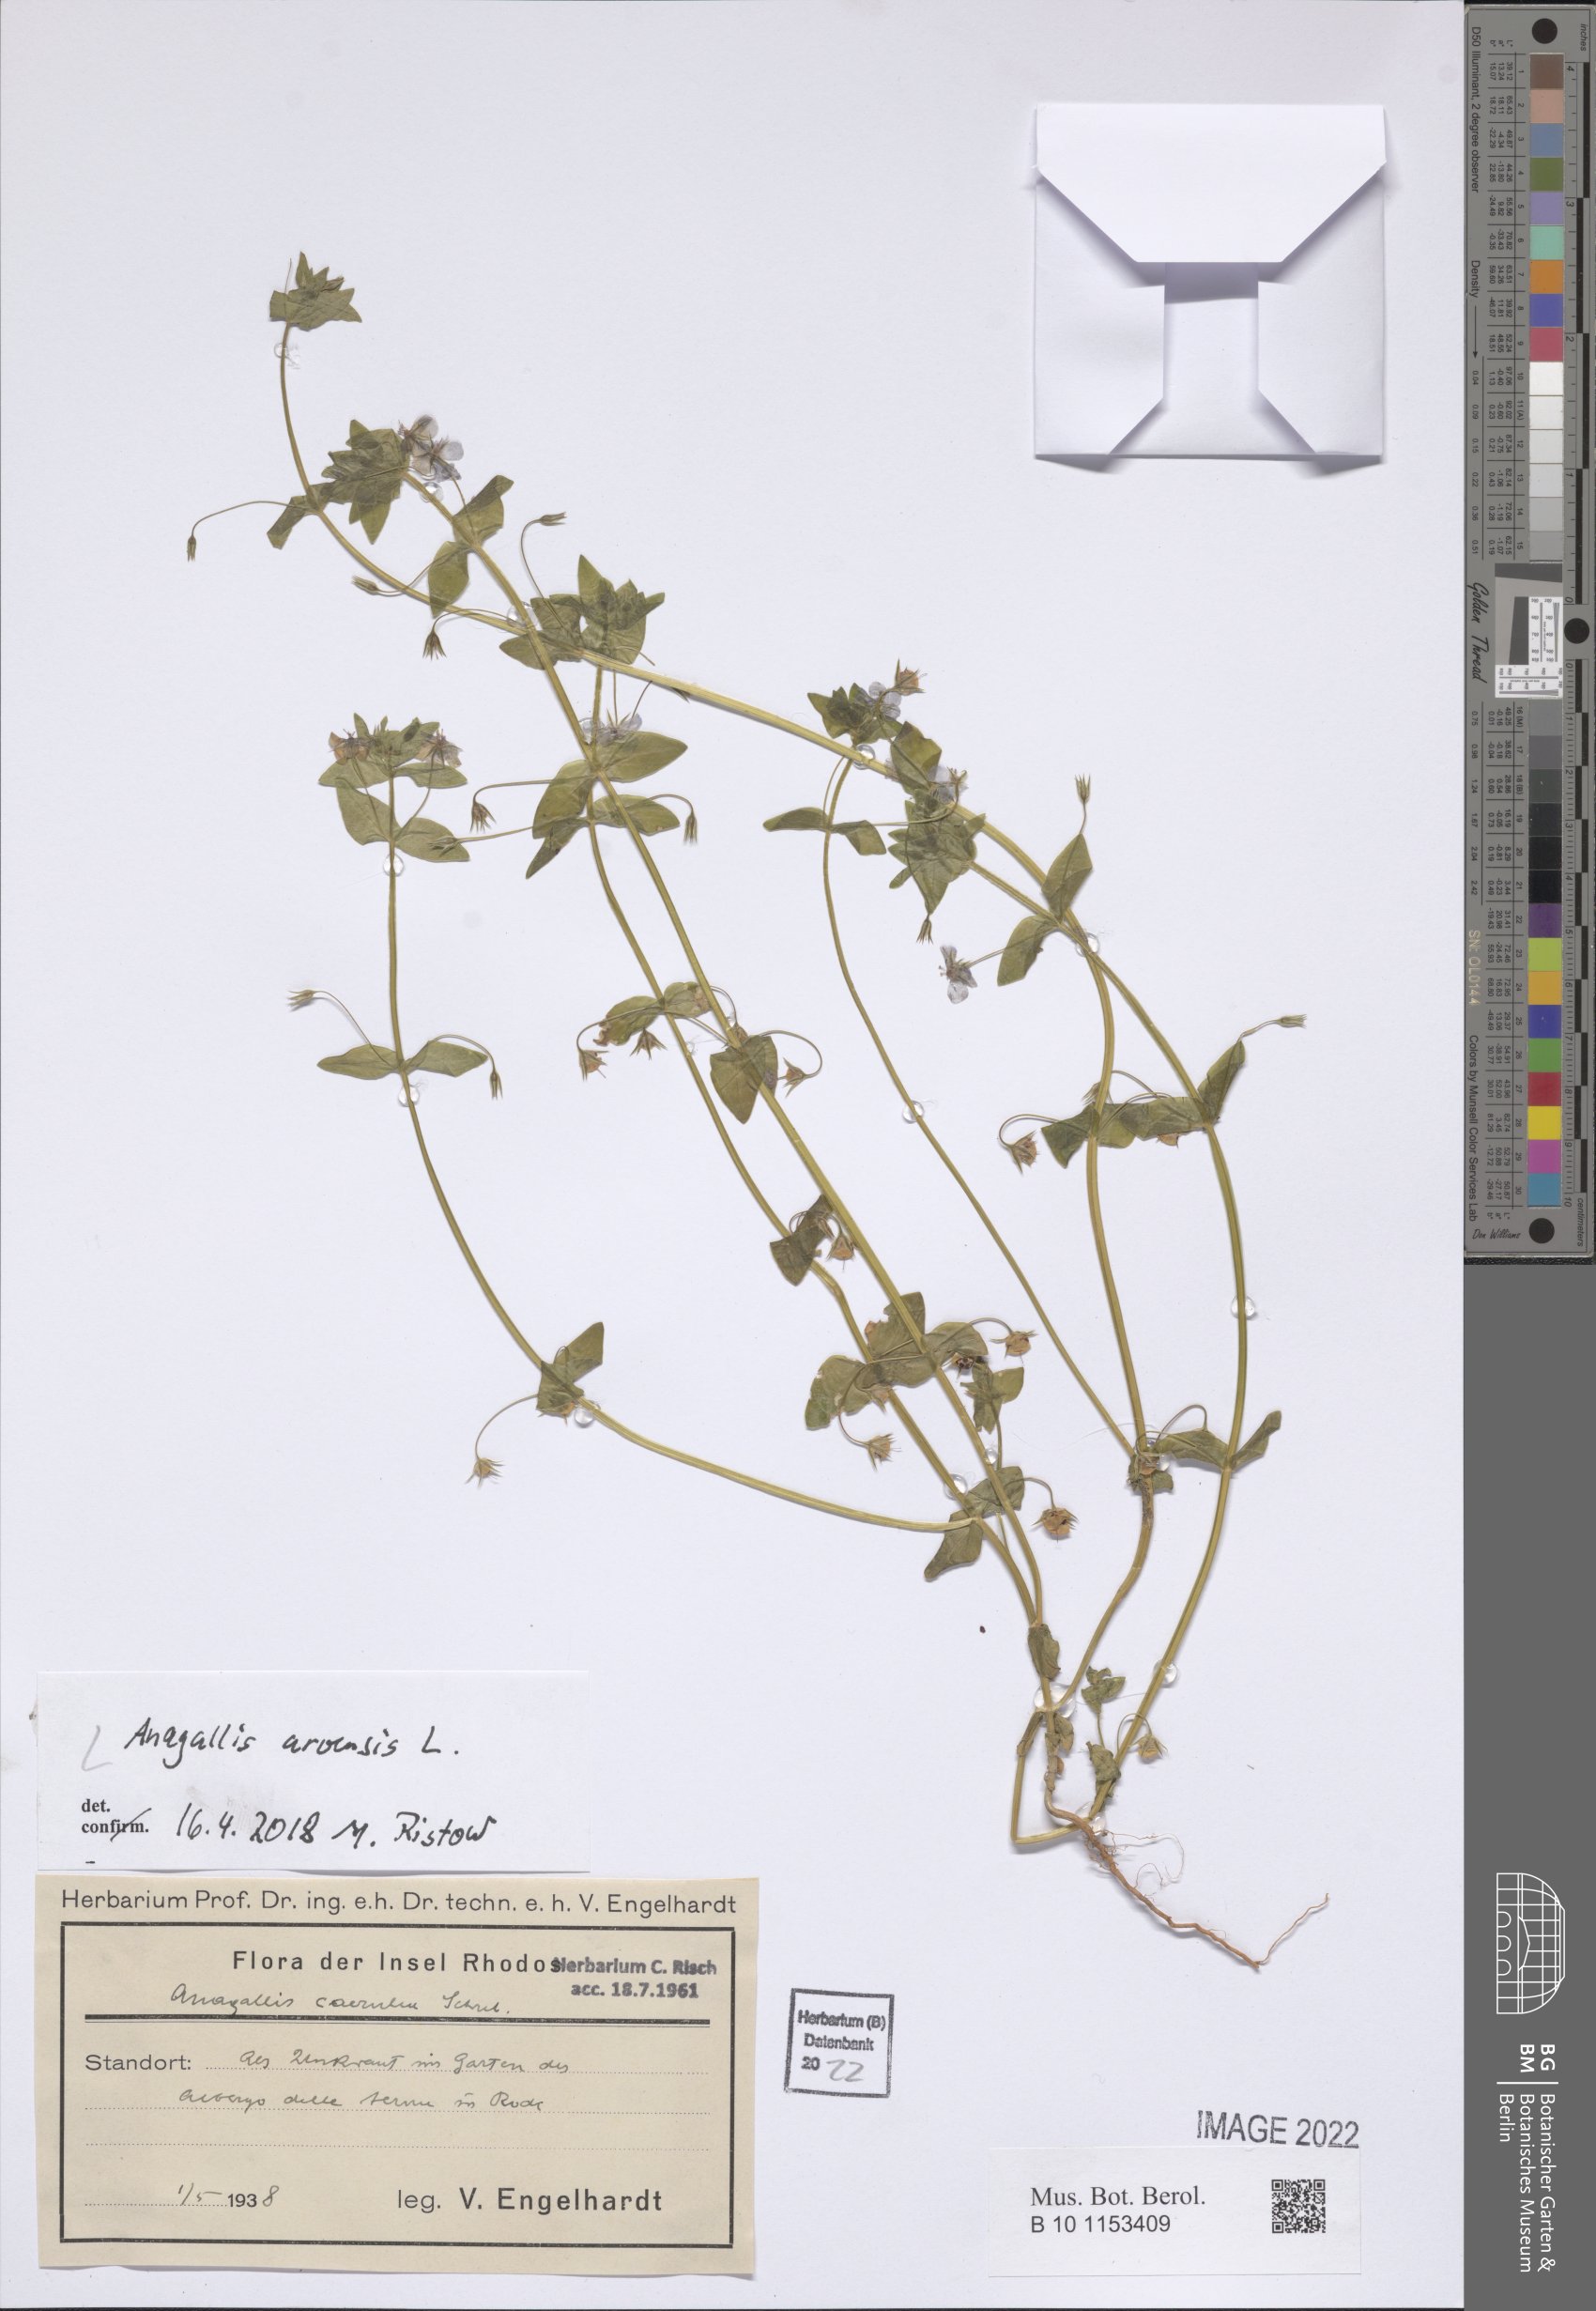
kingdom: Plantae
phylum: Tracheophyta
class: Magnoliopsida
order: Ericales
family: Primulaceae
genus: Lysimachia
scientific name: Lysimachia arvensis
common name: Scarlet pimpernel
